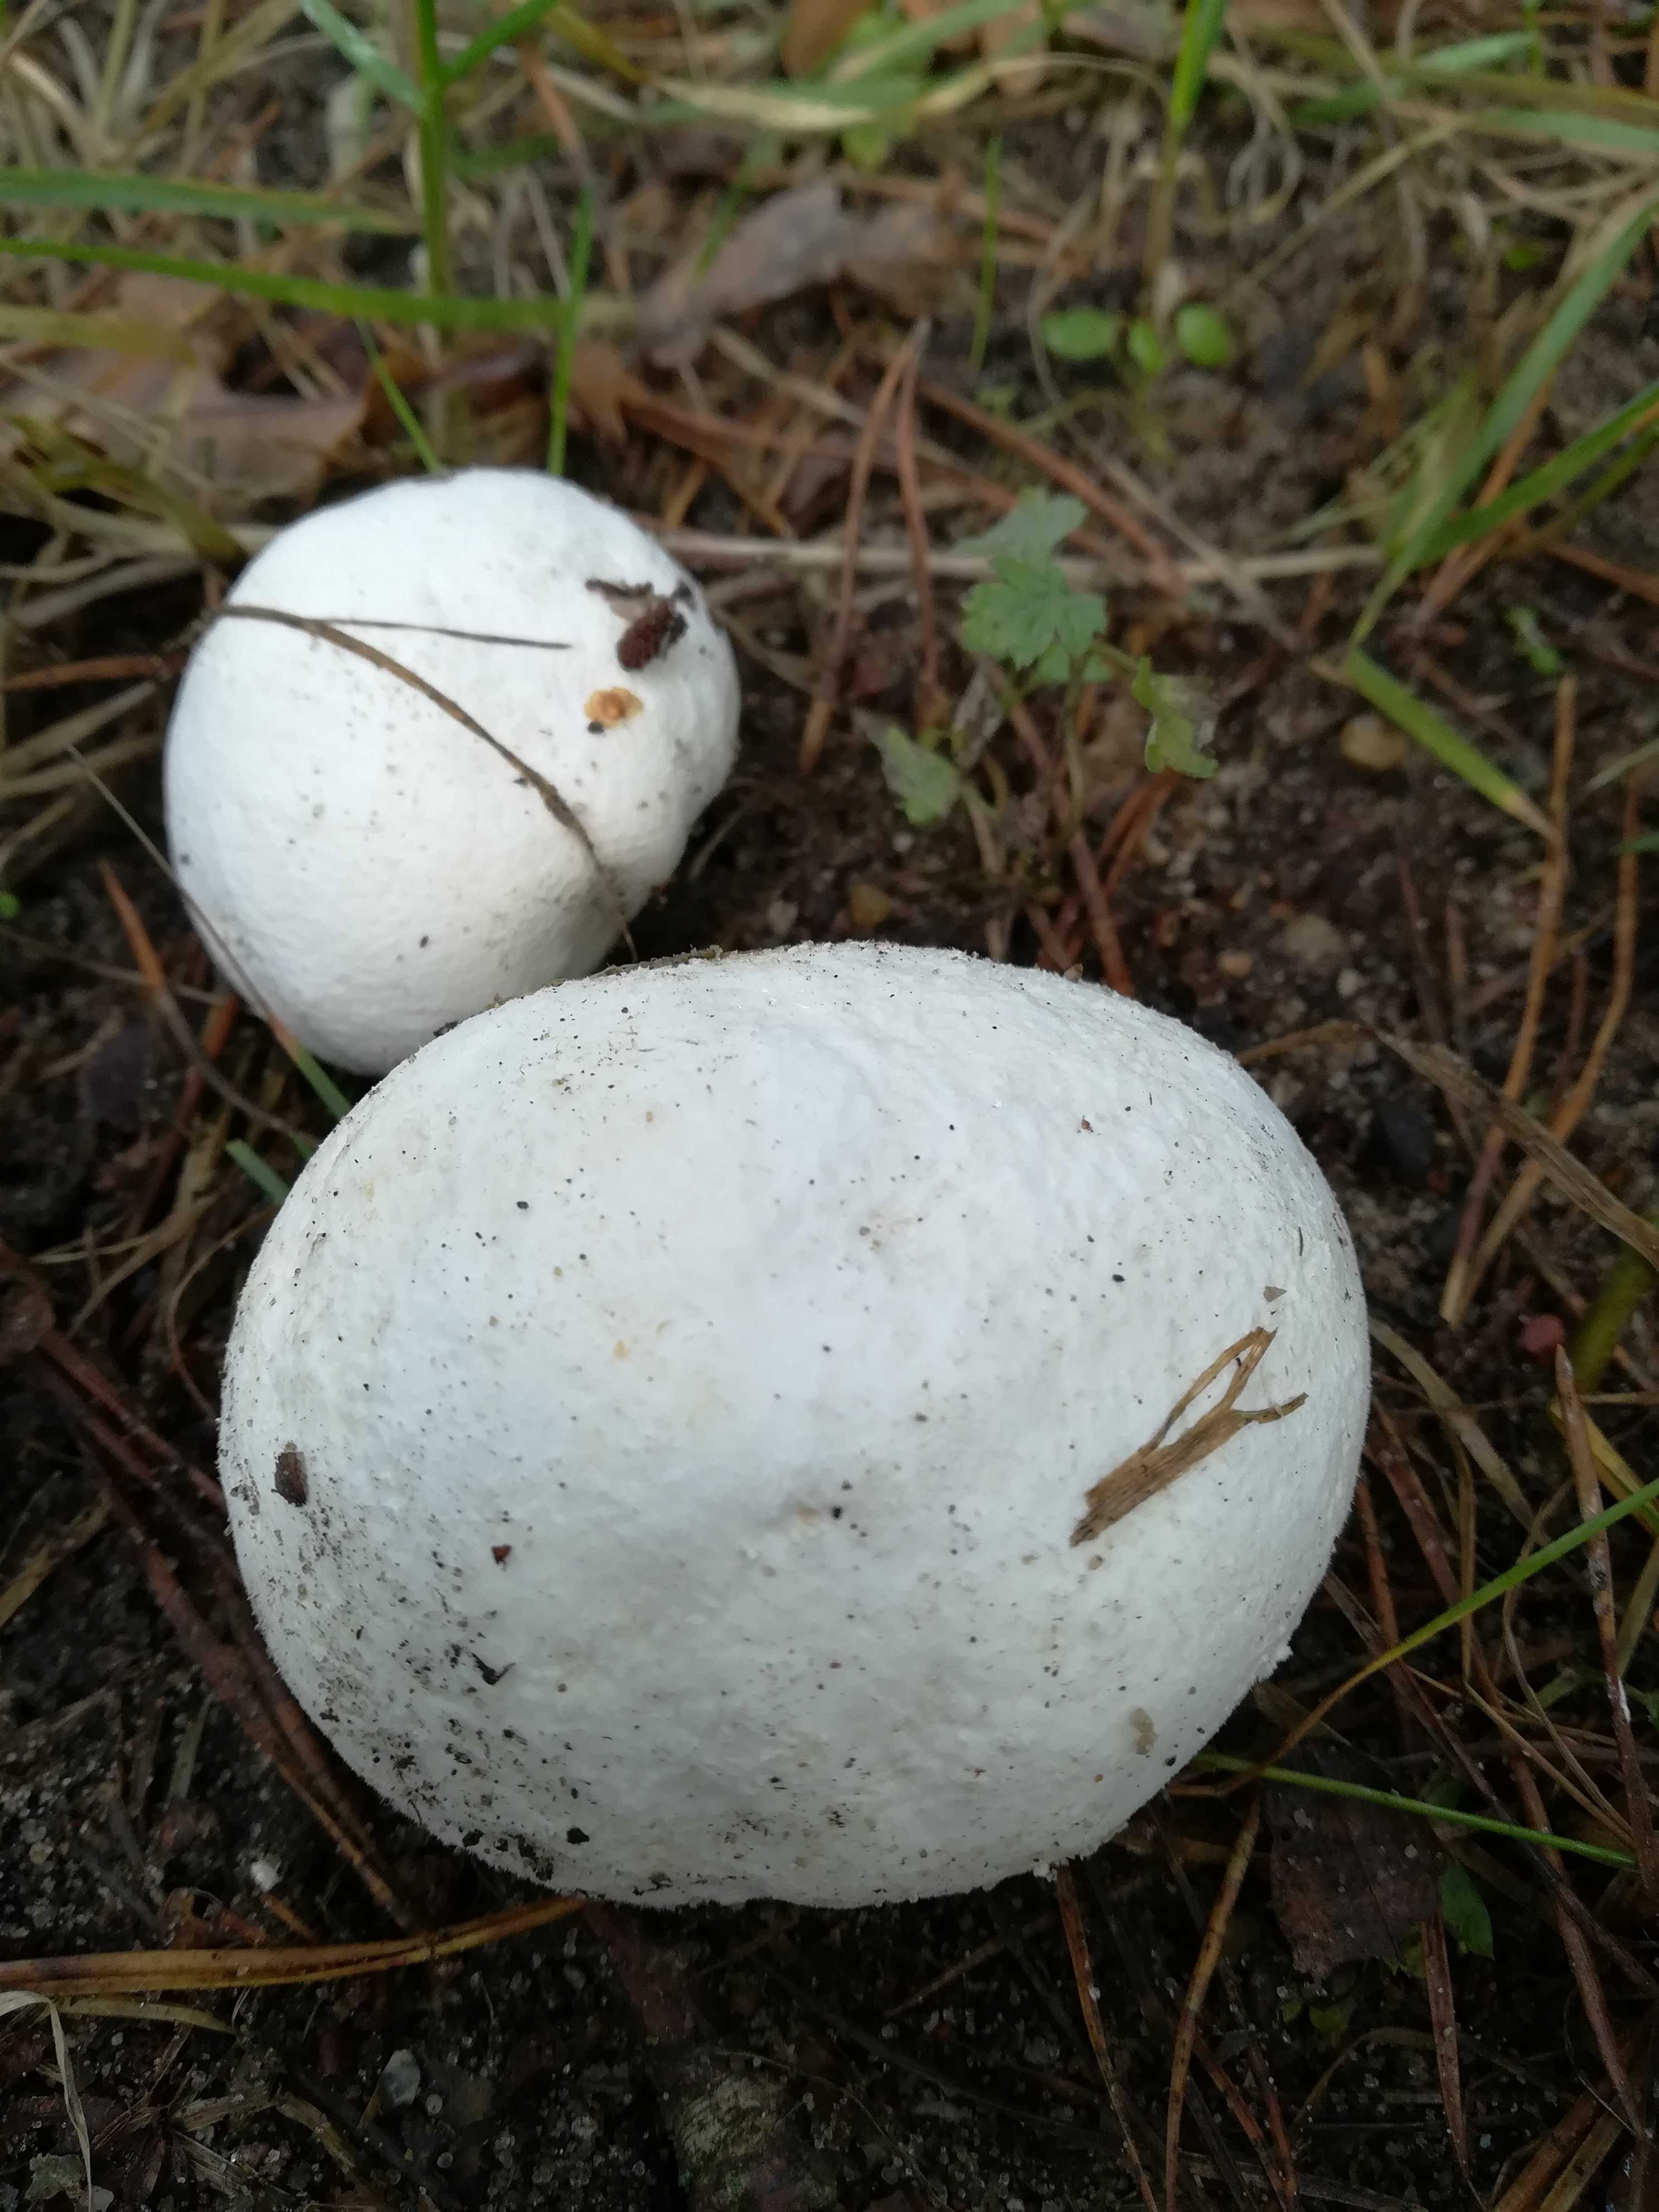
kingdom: Fungi
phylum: Basidiomycota
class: Agaricomycetes
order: Agaricales
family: Lycoperdaceae
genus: Calvatia
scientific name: Calvatia gigantea
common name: kæmpestøvbold
